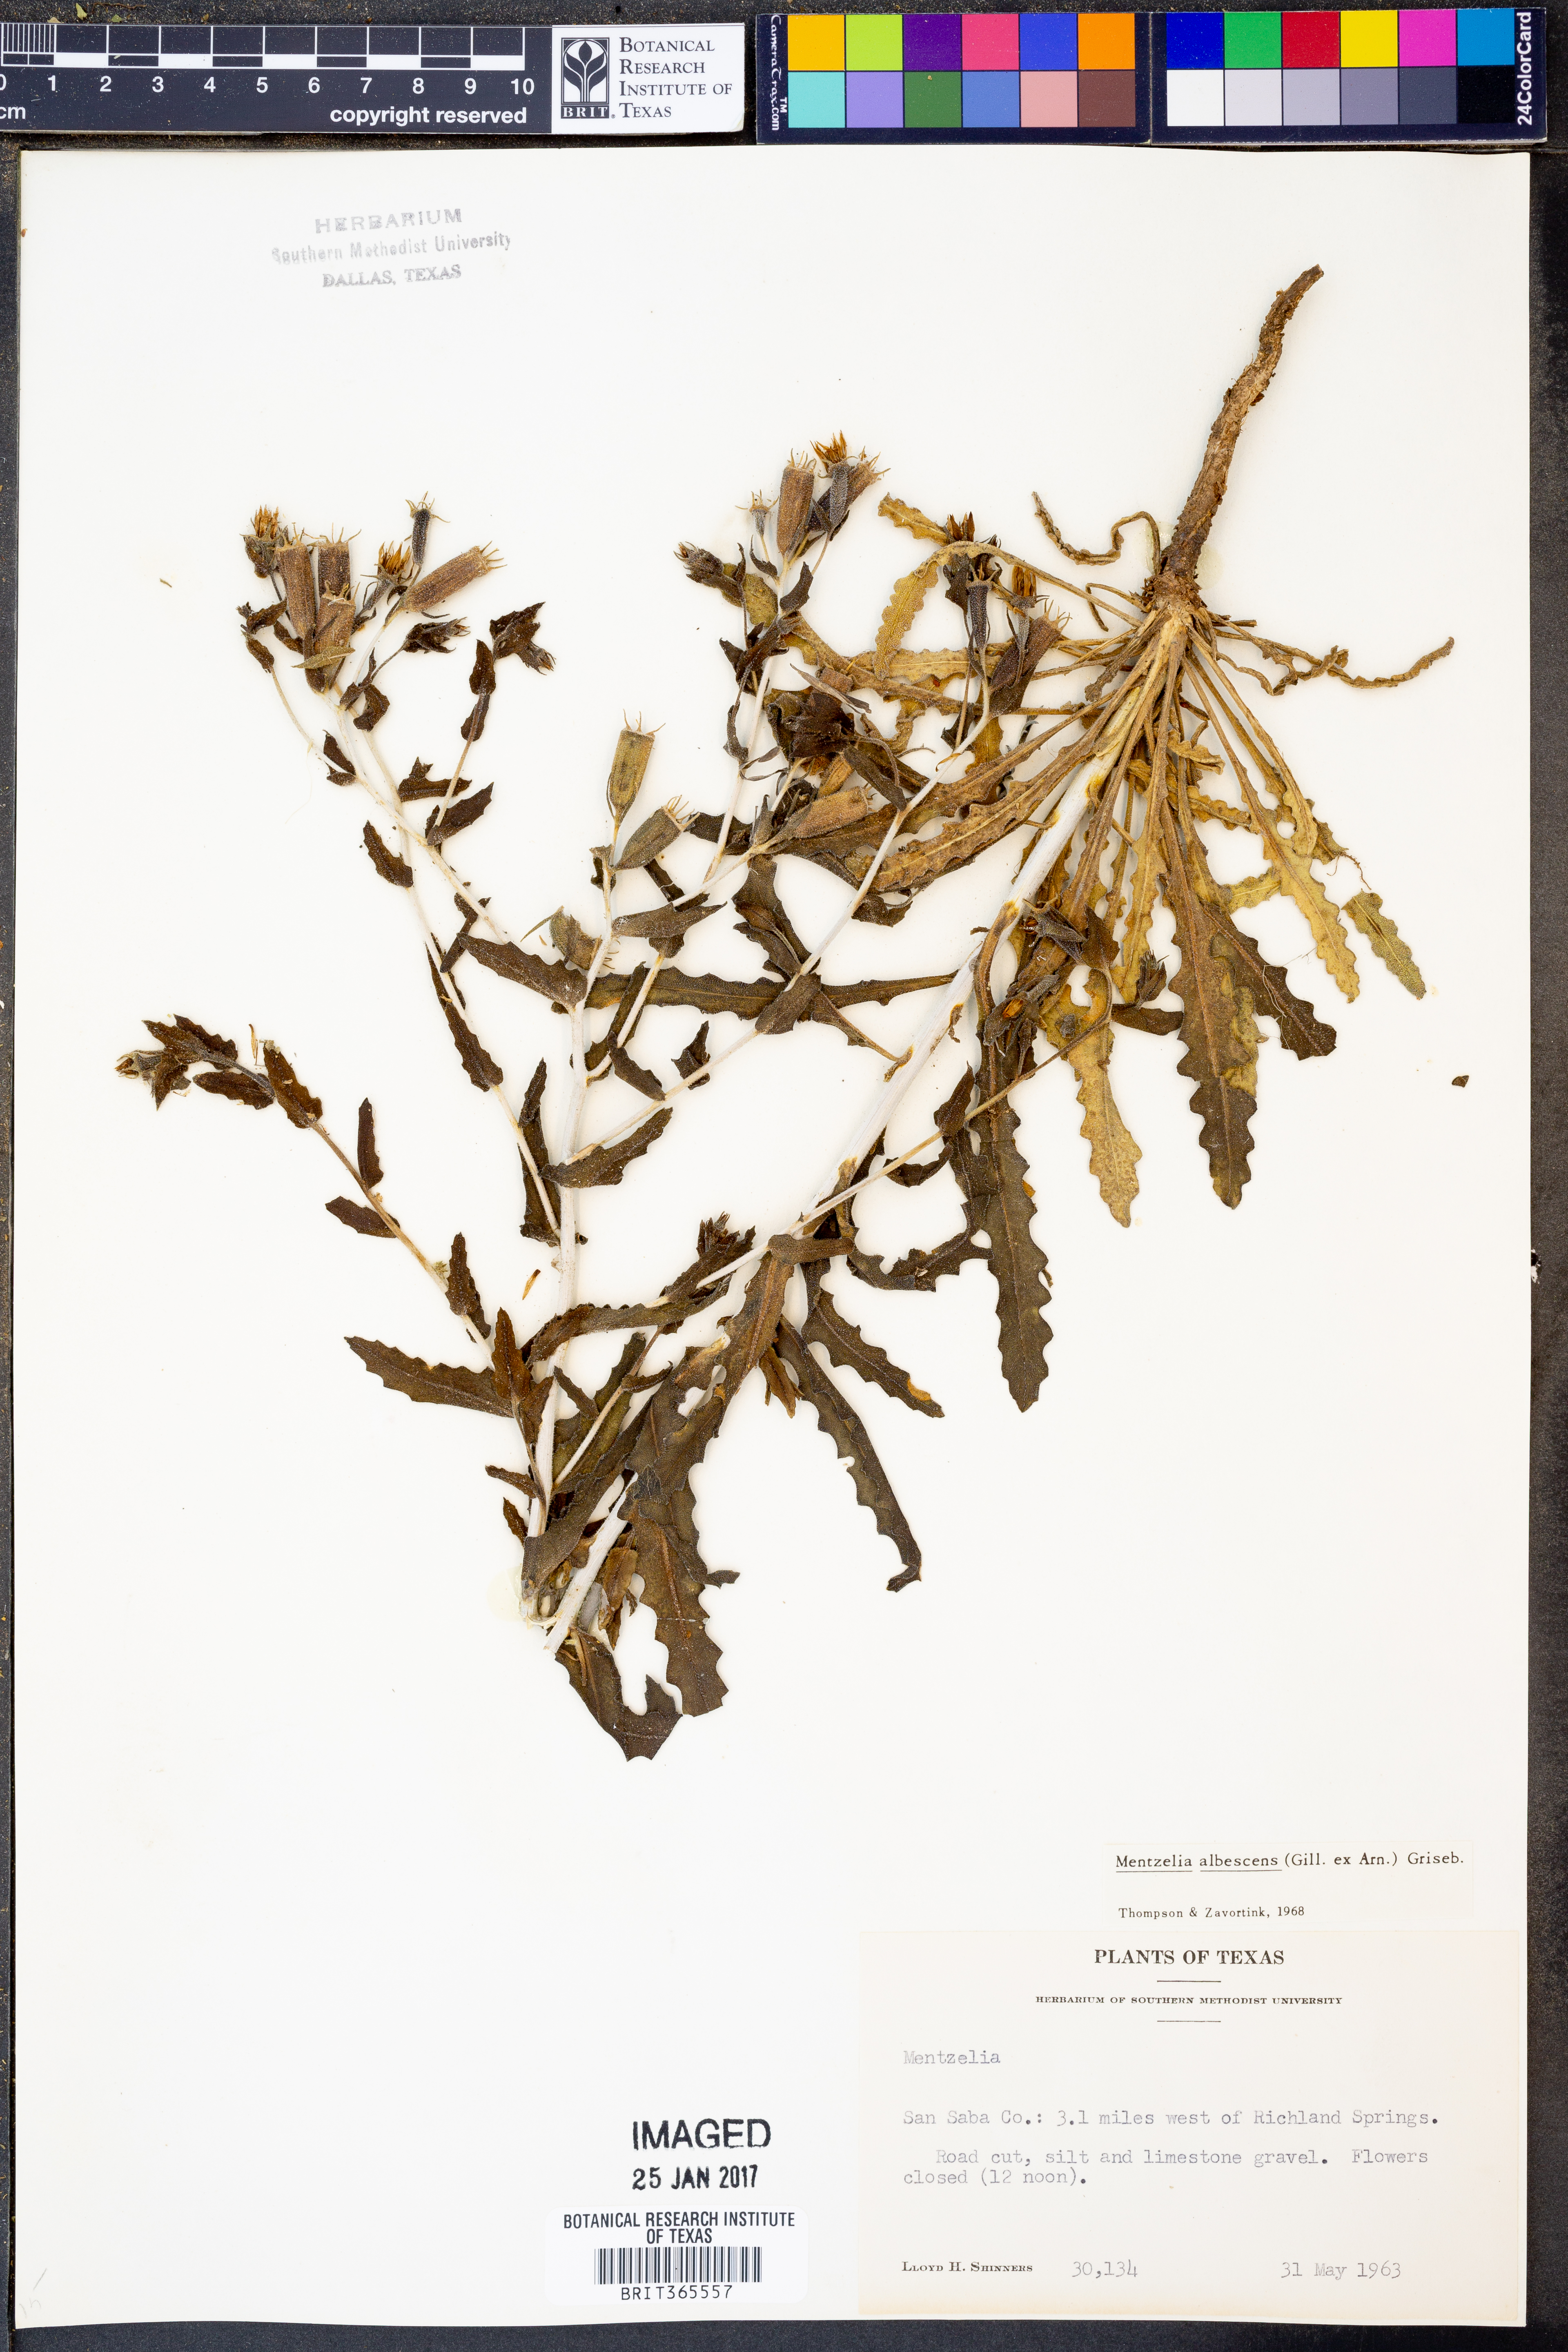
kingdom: Plantae
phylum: Tracheophyta
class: Magnoliopsida
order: Cornales
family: Loasaceae
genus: Mentzelia
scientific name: Mentzelia albescens
